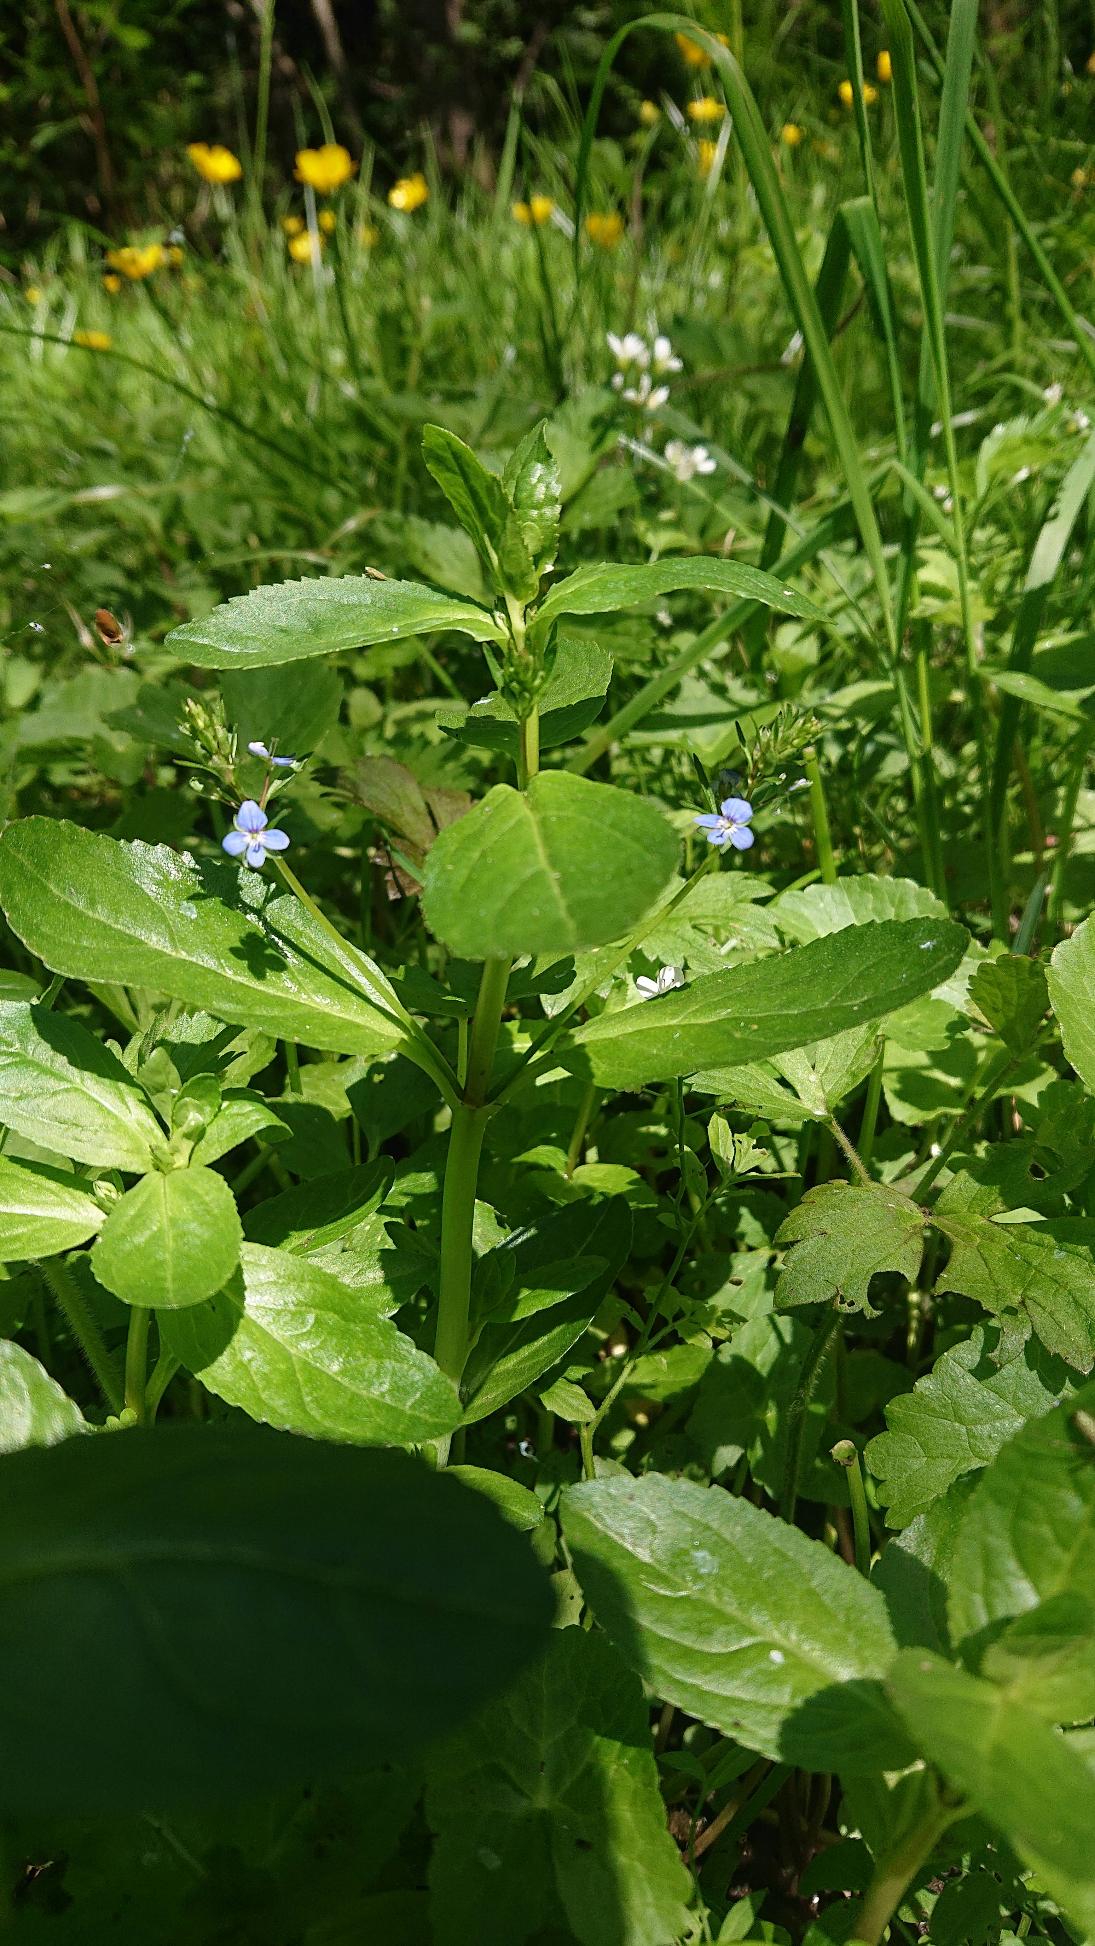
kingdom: Plantae
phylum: Tracheophyta
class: Magnoliopsida
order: Lamiales
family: Plantaginaceae
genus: Veronica
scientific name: Veronica beccabunga
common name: Tykbladet ærenpris
